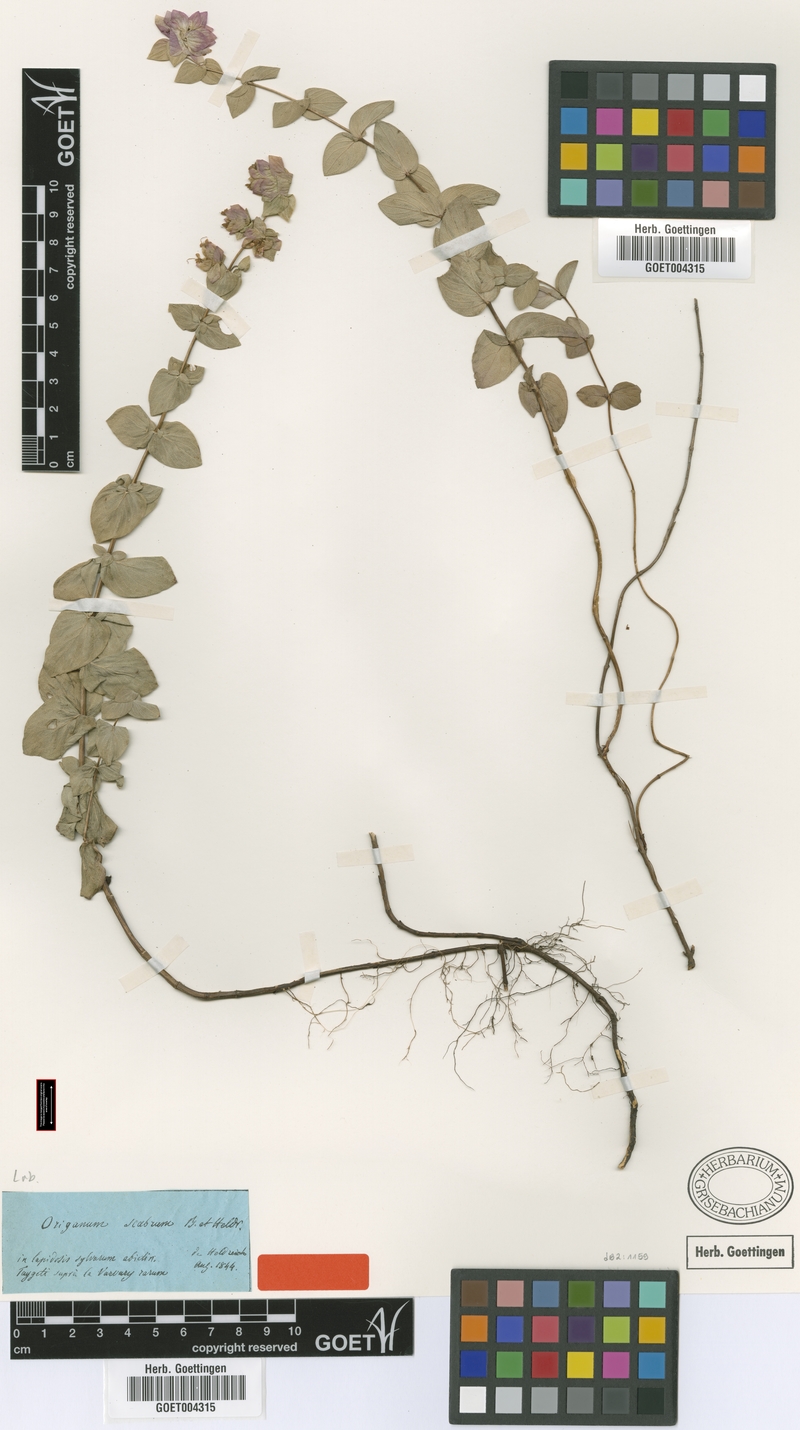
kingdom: Plantae
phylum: Tracheophyta
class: Magnoliopsida
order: Lamiales
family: Lamiaceae
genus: Origanum
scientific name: Origanum scabrum
